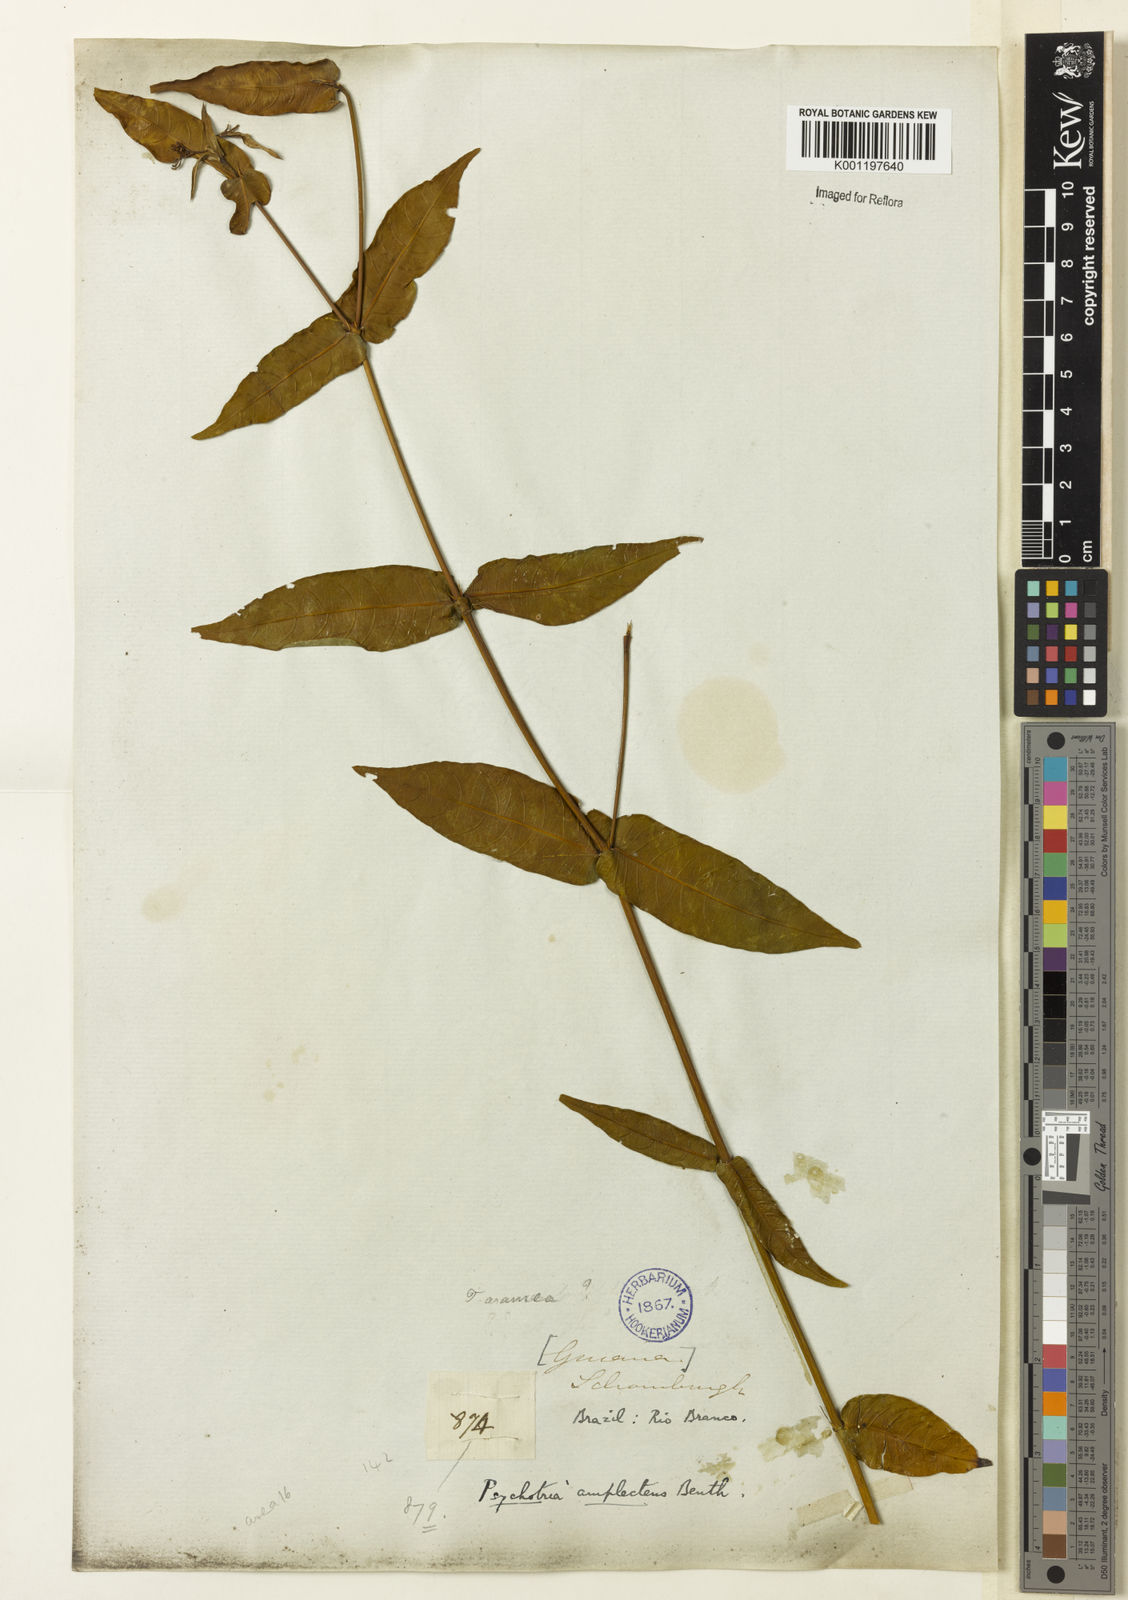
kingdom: Plantae
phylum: Tracheophyta
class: Magnoliopsida
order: Gentianales
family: Rubiaceae
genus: Psychotria
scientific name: Psychotria
